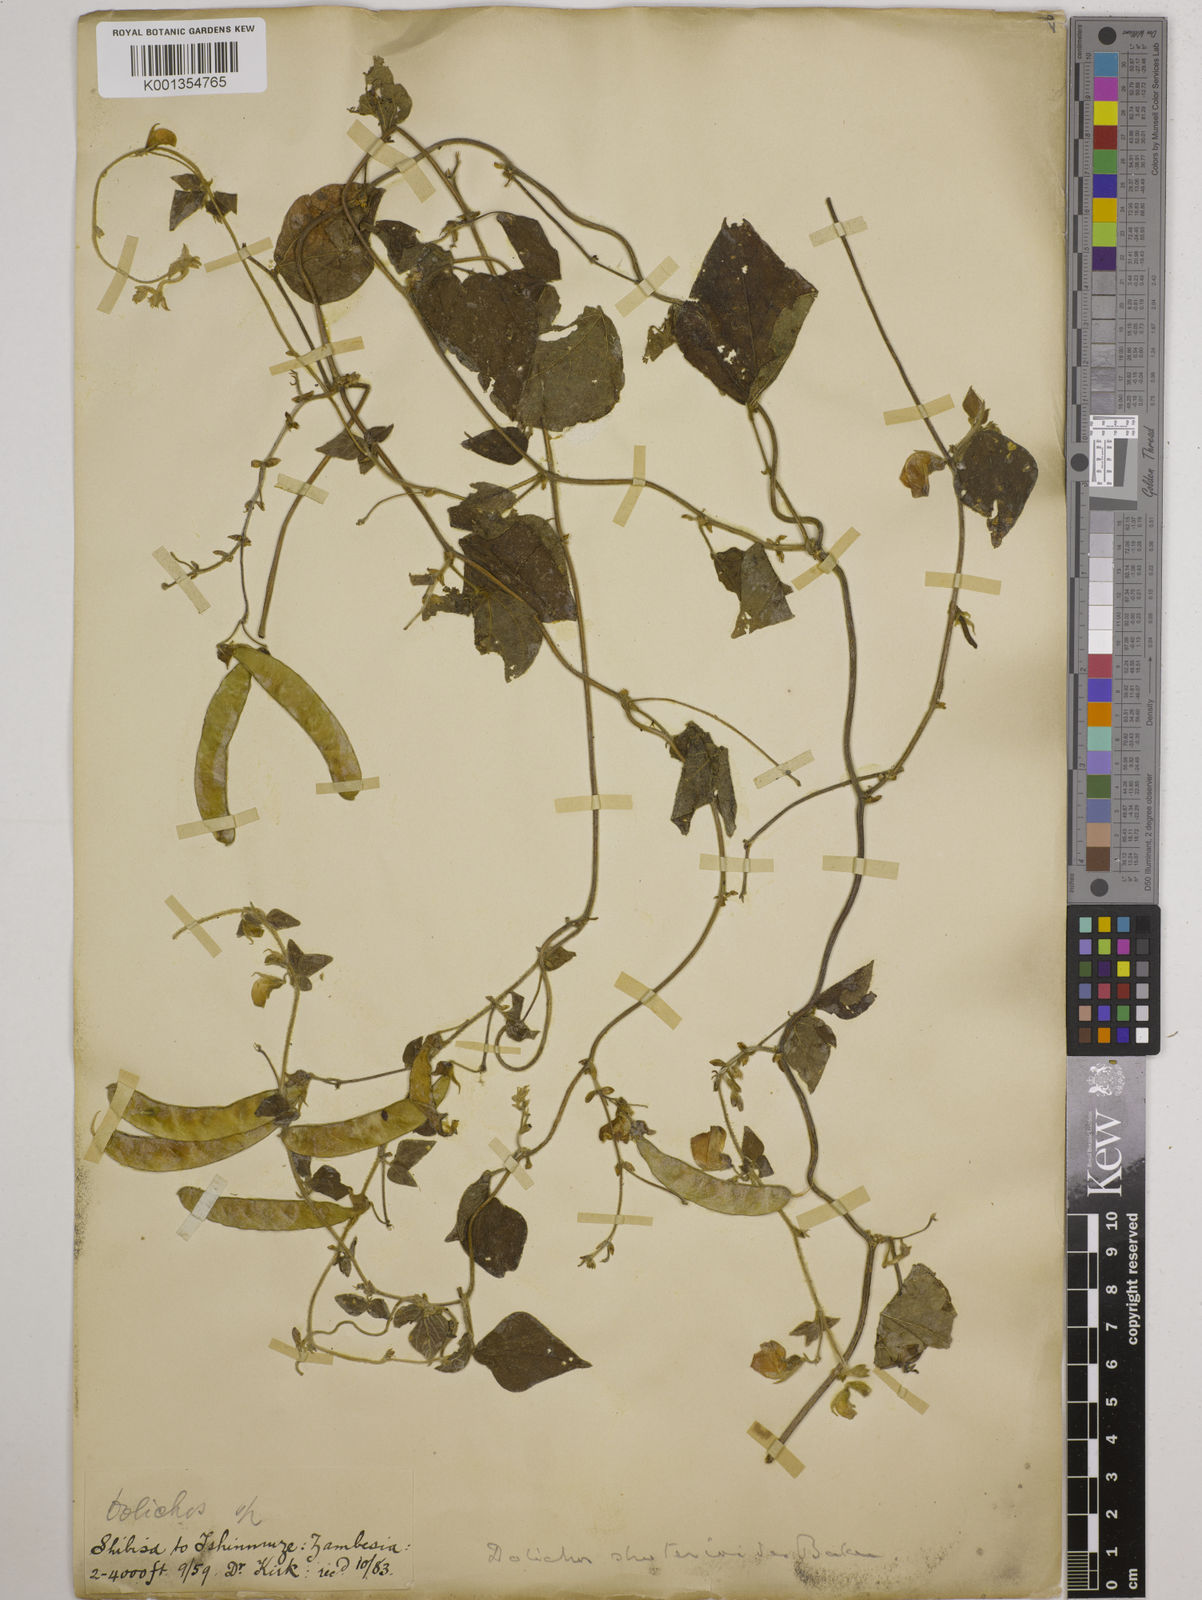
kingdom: Plantae
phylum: Tracheophyta
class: Magnoliopsida
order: Fabales
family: Fabaceae
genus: Dolichos
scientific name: Dolichos
